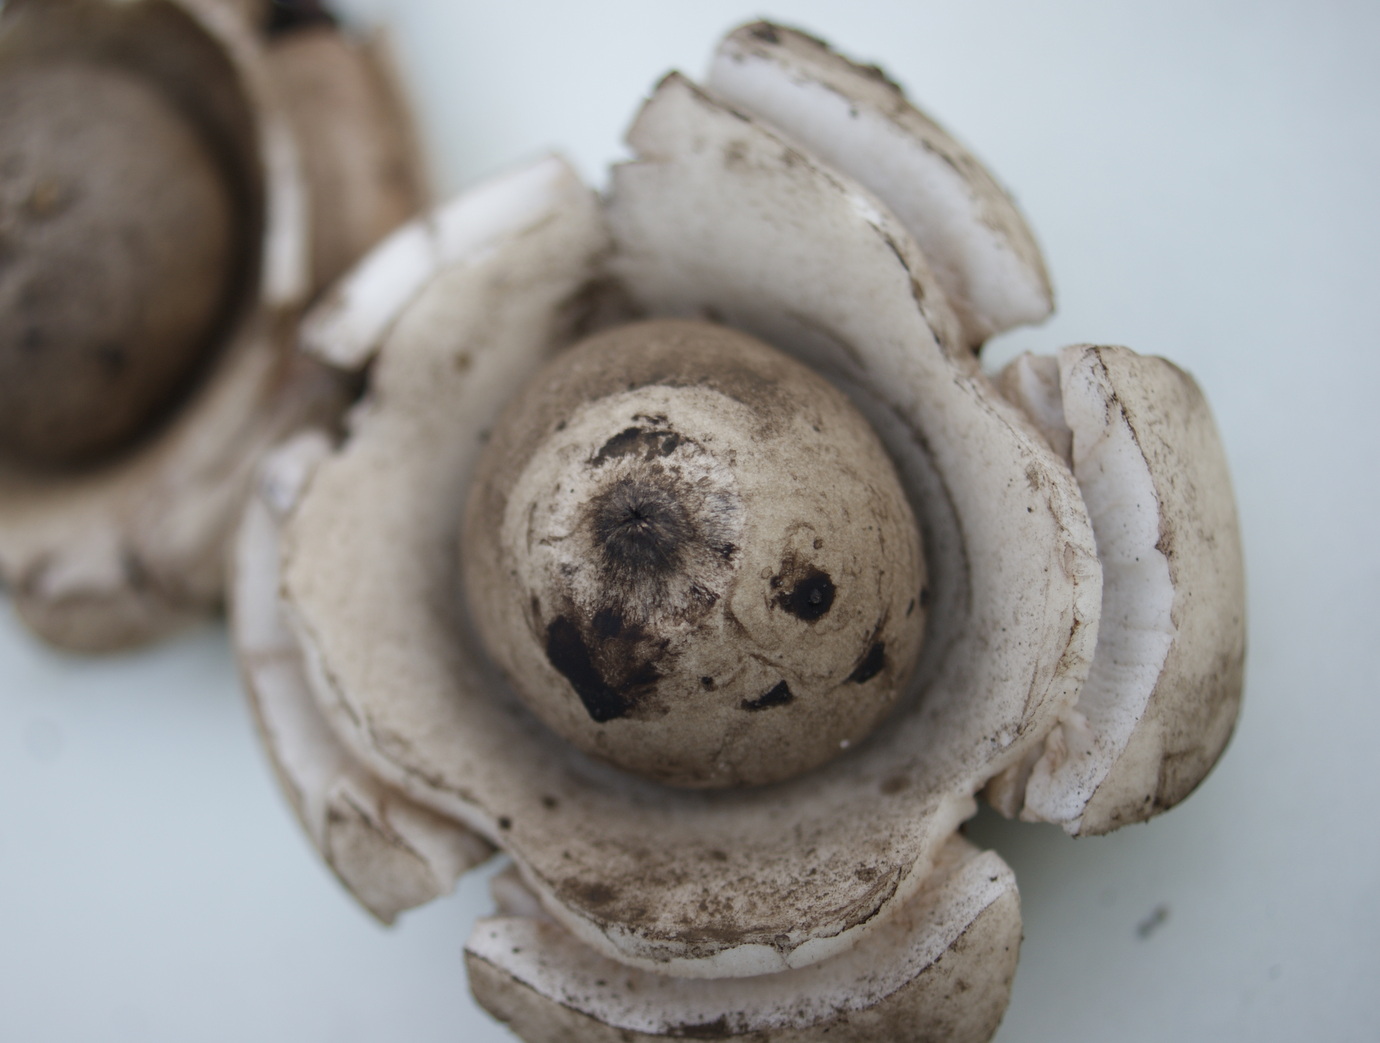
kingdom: Fungi
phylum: Basidiomycota
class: Agaricomycetes
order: Geastrales
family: Geastraceae
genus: Geastrum
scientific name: Geastrum michelianum
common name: kødet stjernebold
